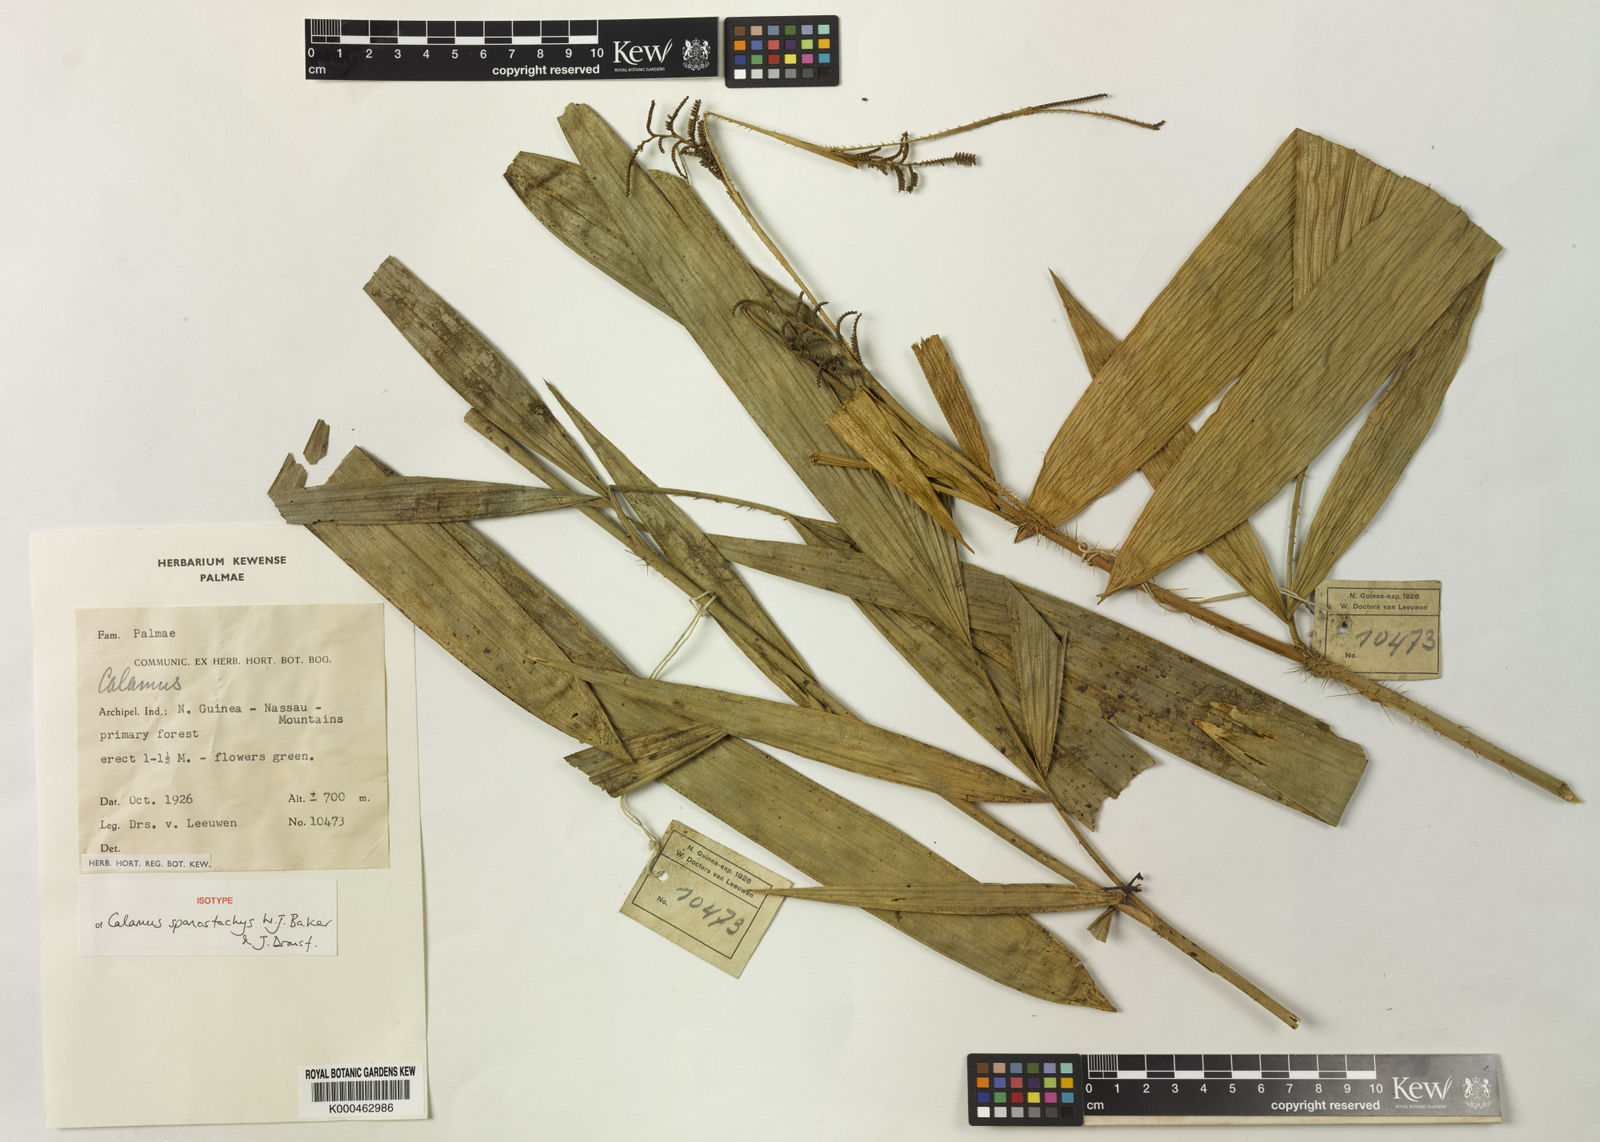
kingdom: Plantae
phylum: Tracheophyta
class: Liliopsida
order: Arecales
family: Arecaceae
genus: Calamus
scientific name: Calamus spanostachys
